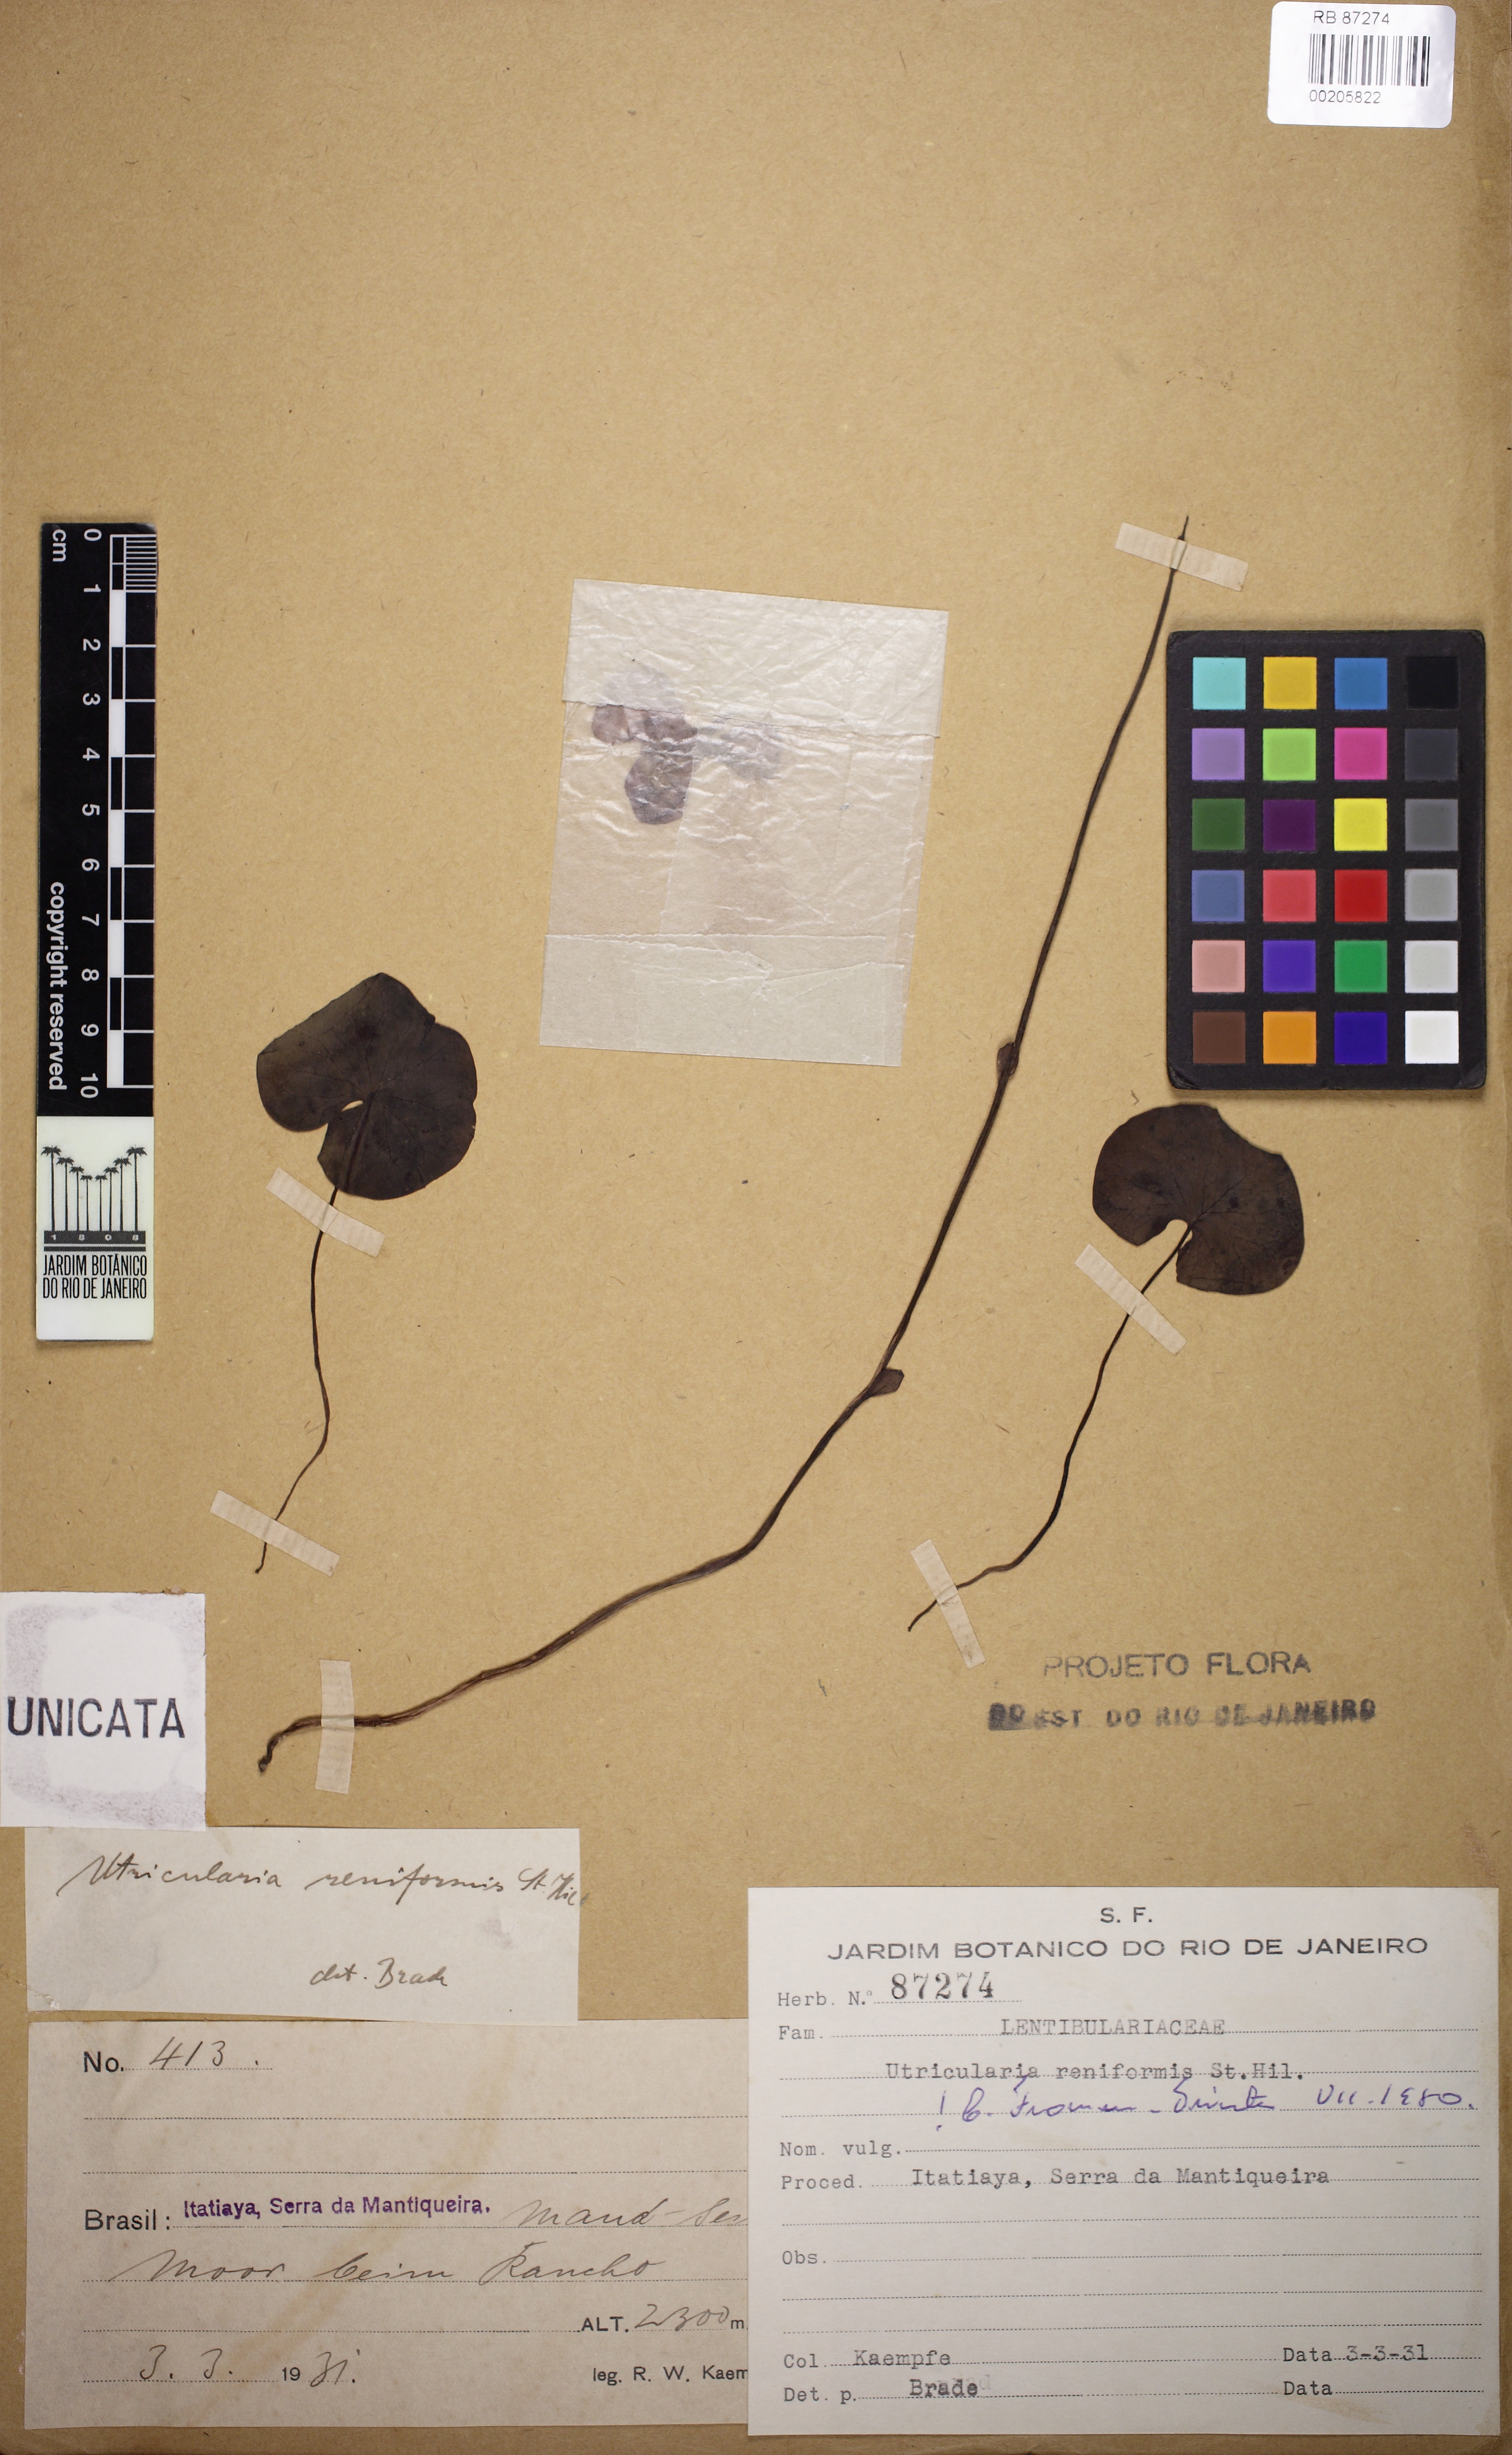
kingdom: Plantae
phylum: Tracheophyta
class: Magnoliopsida
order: Lamiales
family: Lentibulariaceae
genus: Utricularia
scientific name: Utricularia reniformis
